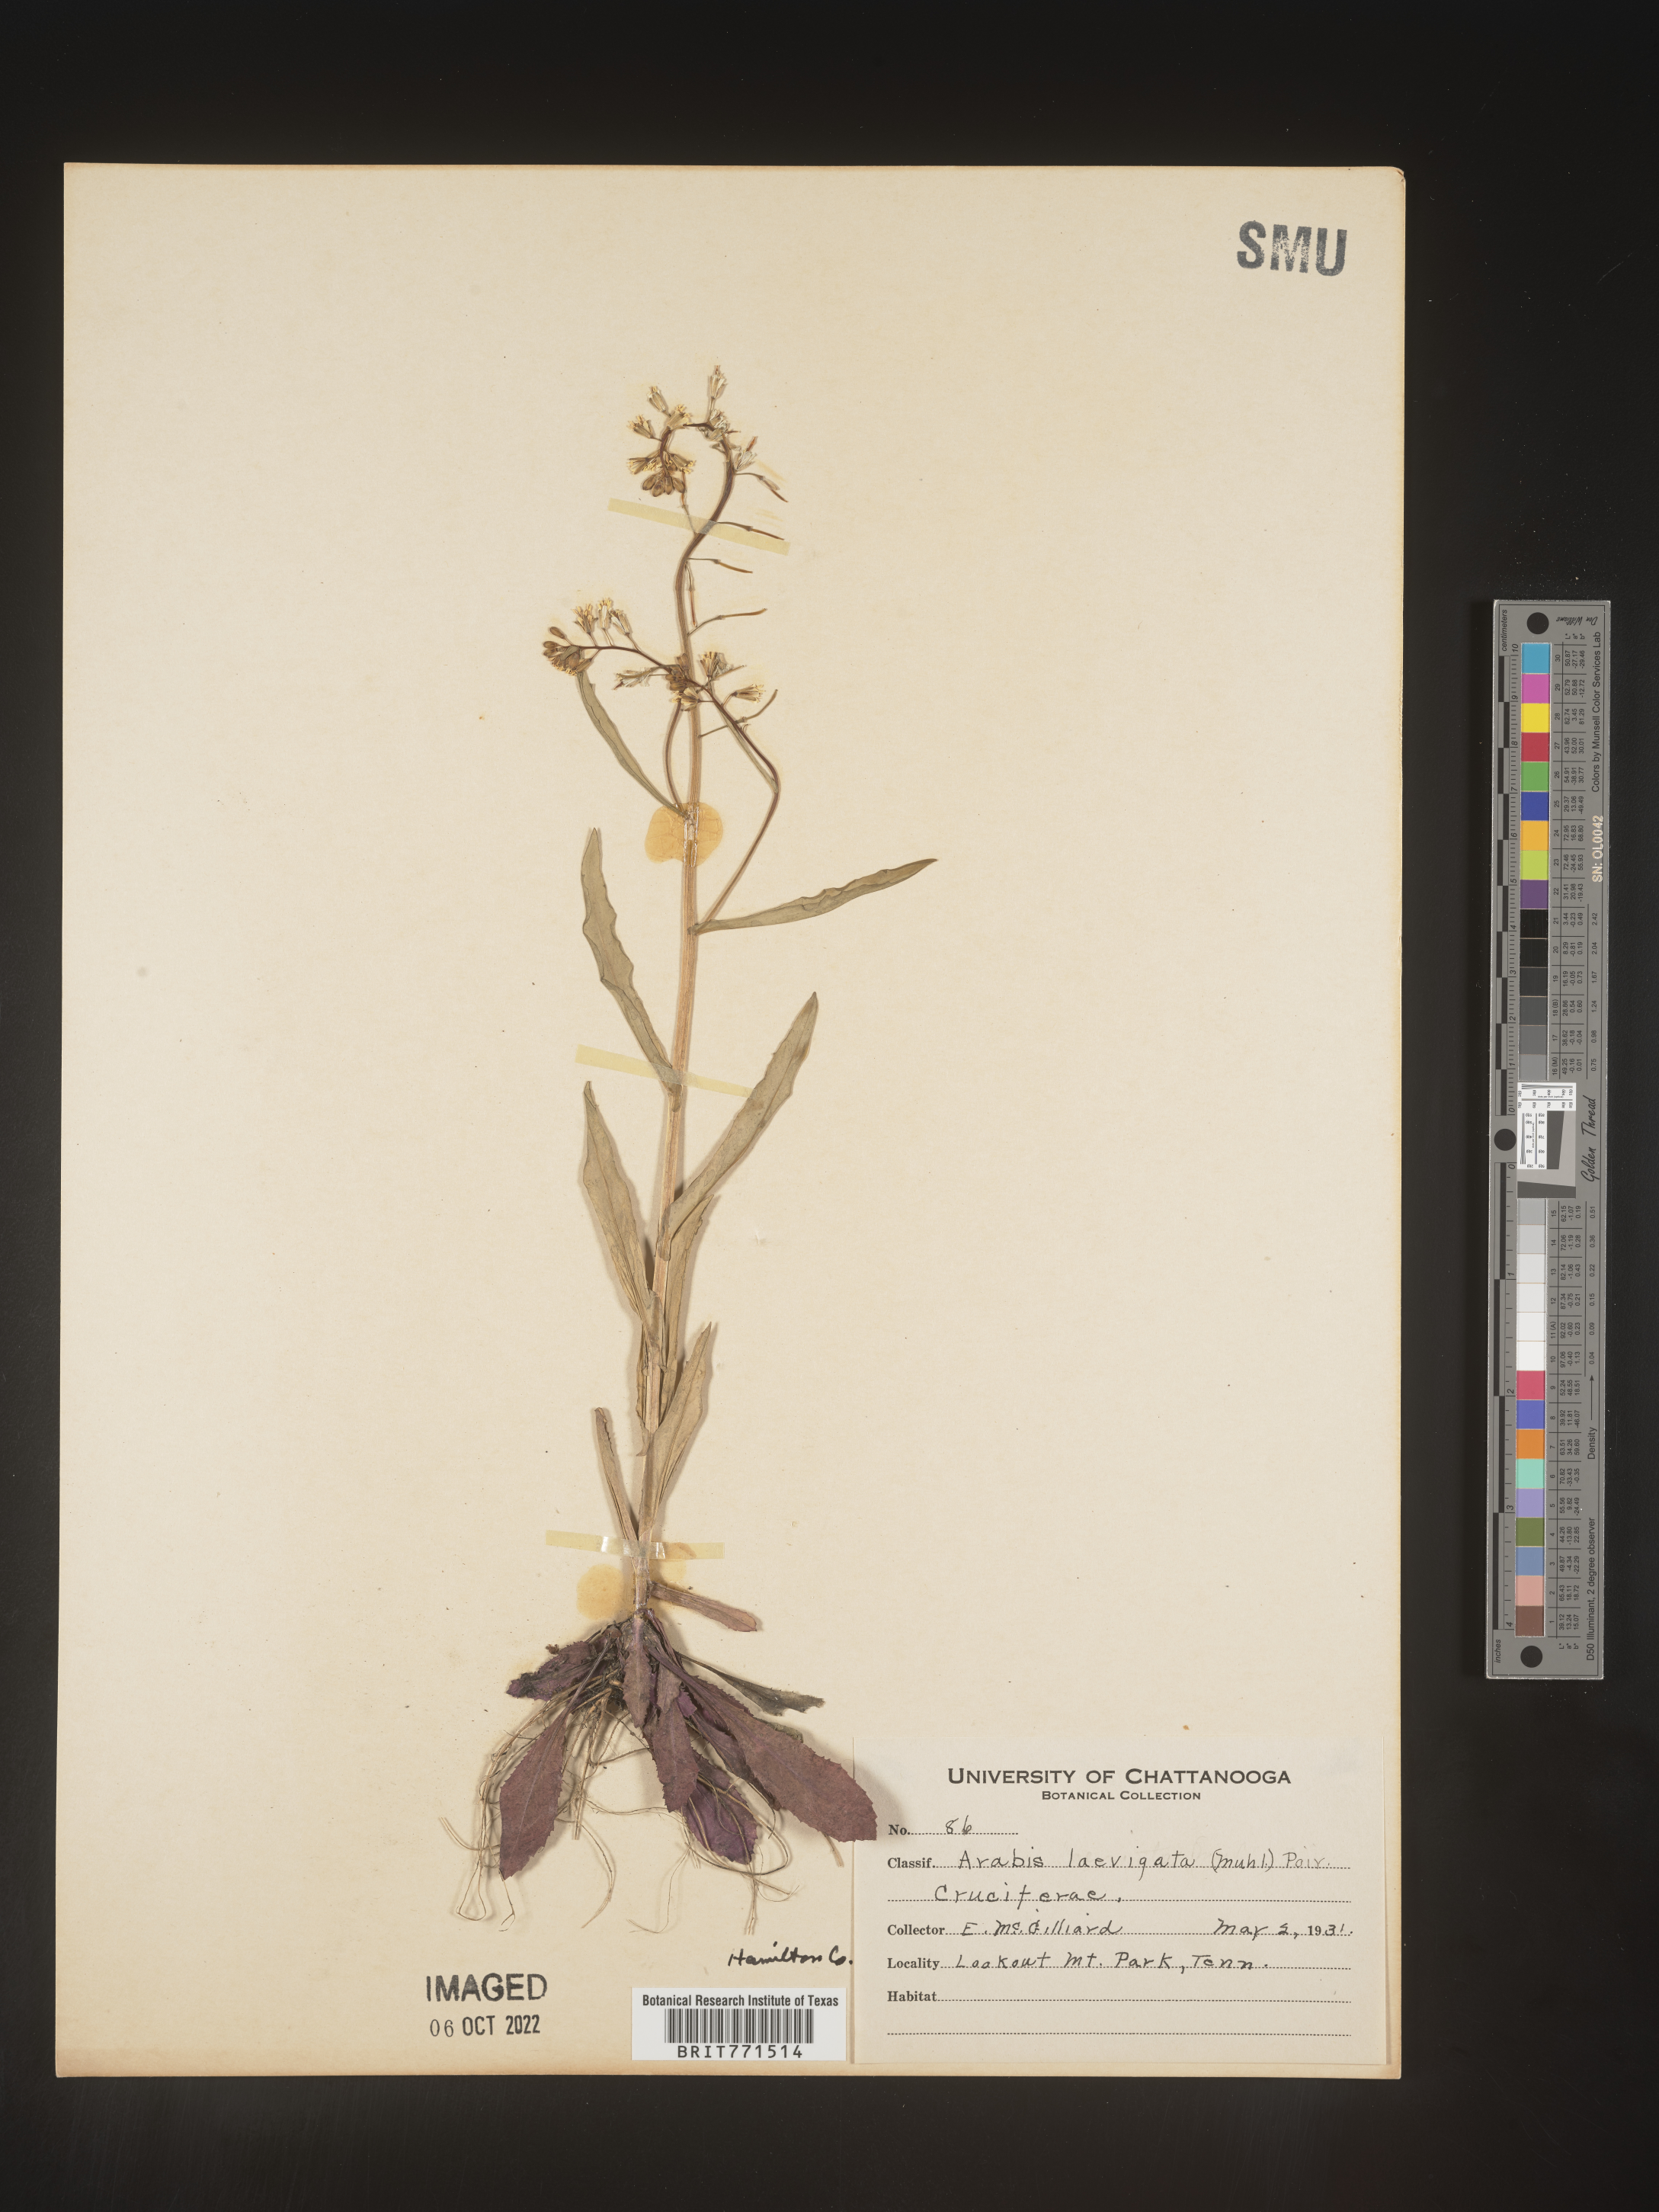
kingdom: Plantae
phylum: Tracheophyta
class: Magnoliopsida
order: Brassicales
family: Brassicaceae
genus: Arabis
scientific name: Arabis laevigata
